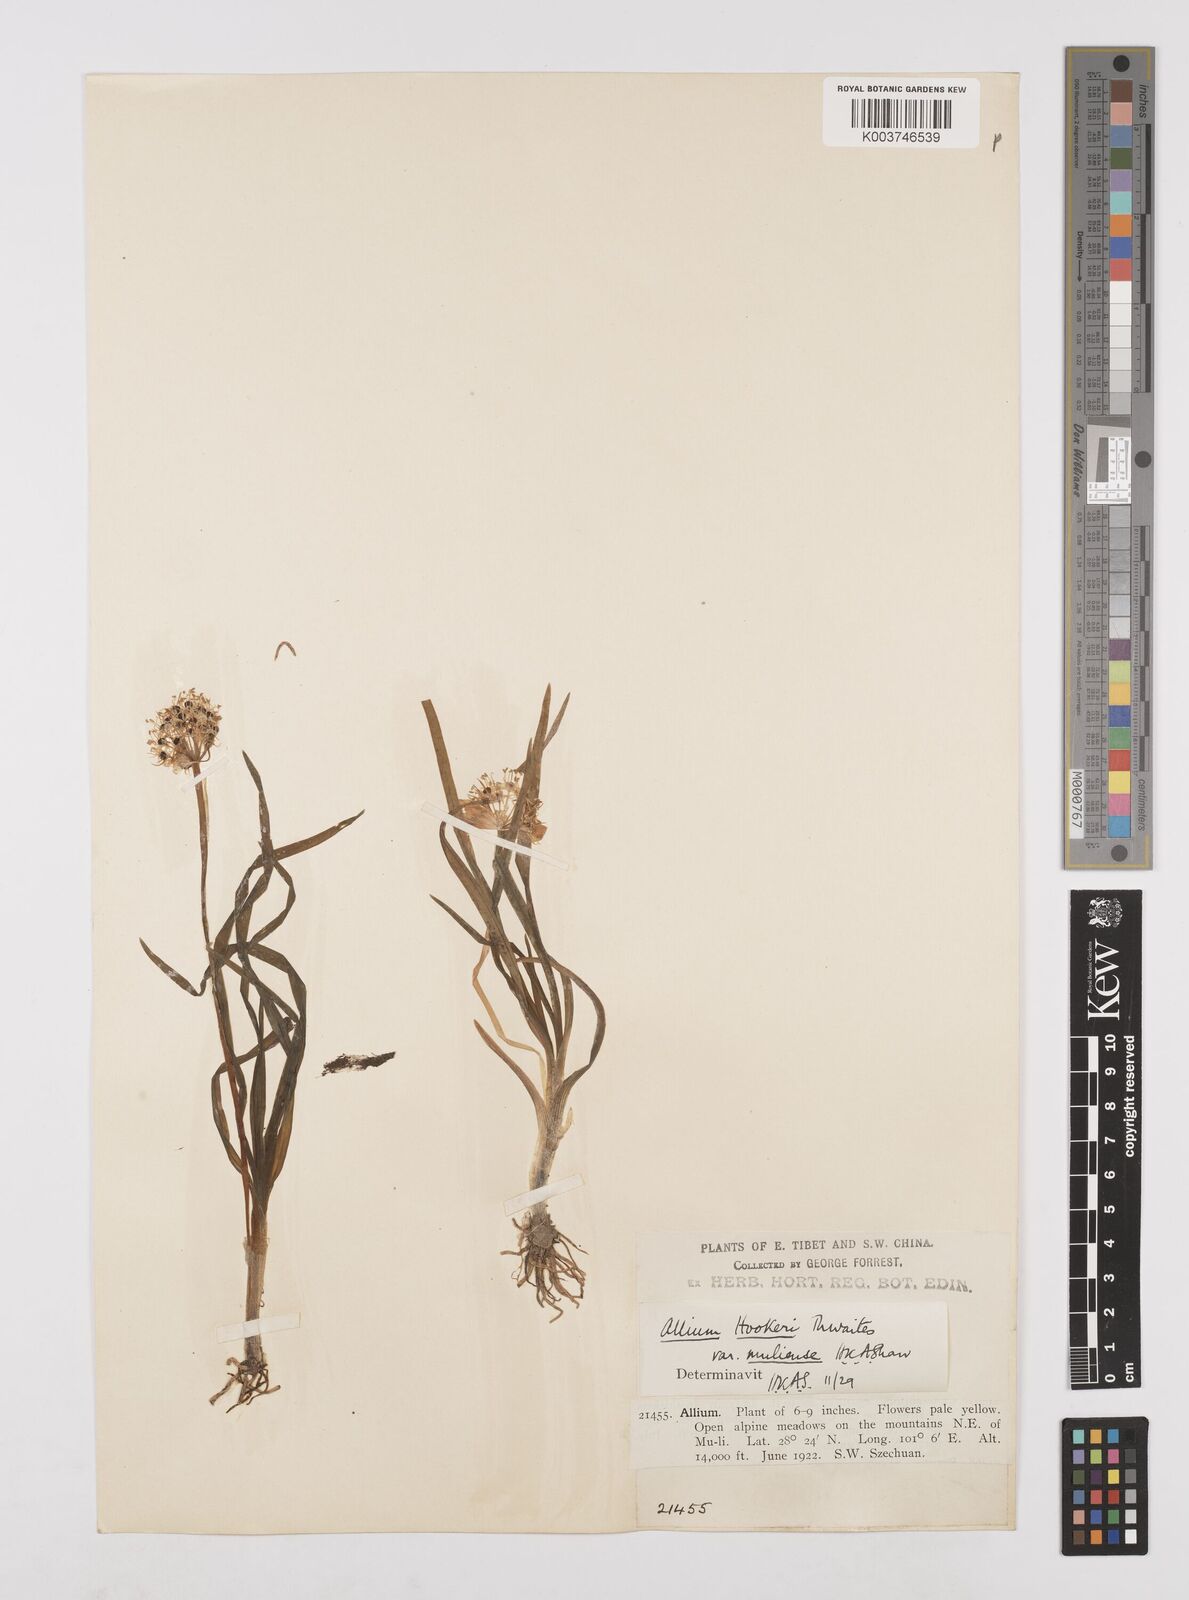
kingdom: Plantae
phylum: Tracheophyta
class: Liliopsida
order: Asparagales
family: Amaryllidaceae
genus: Allium
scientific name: Allium hookeri
